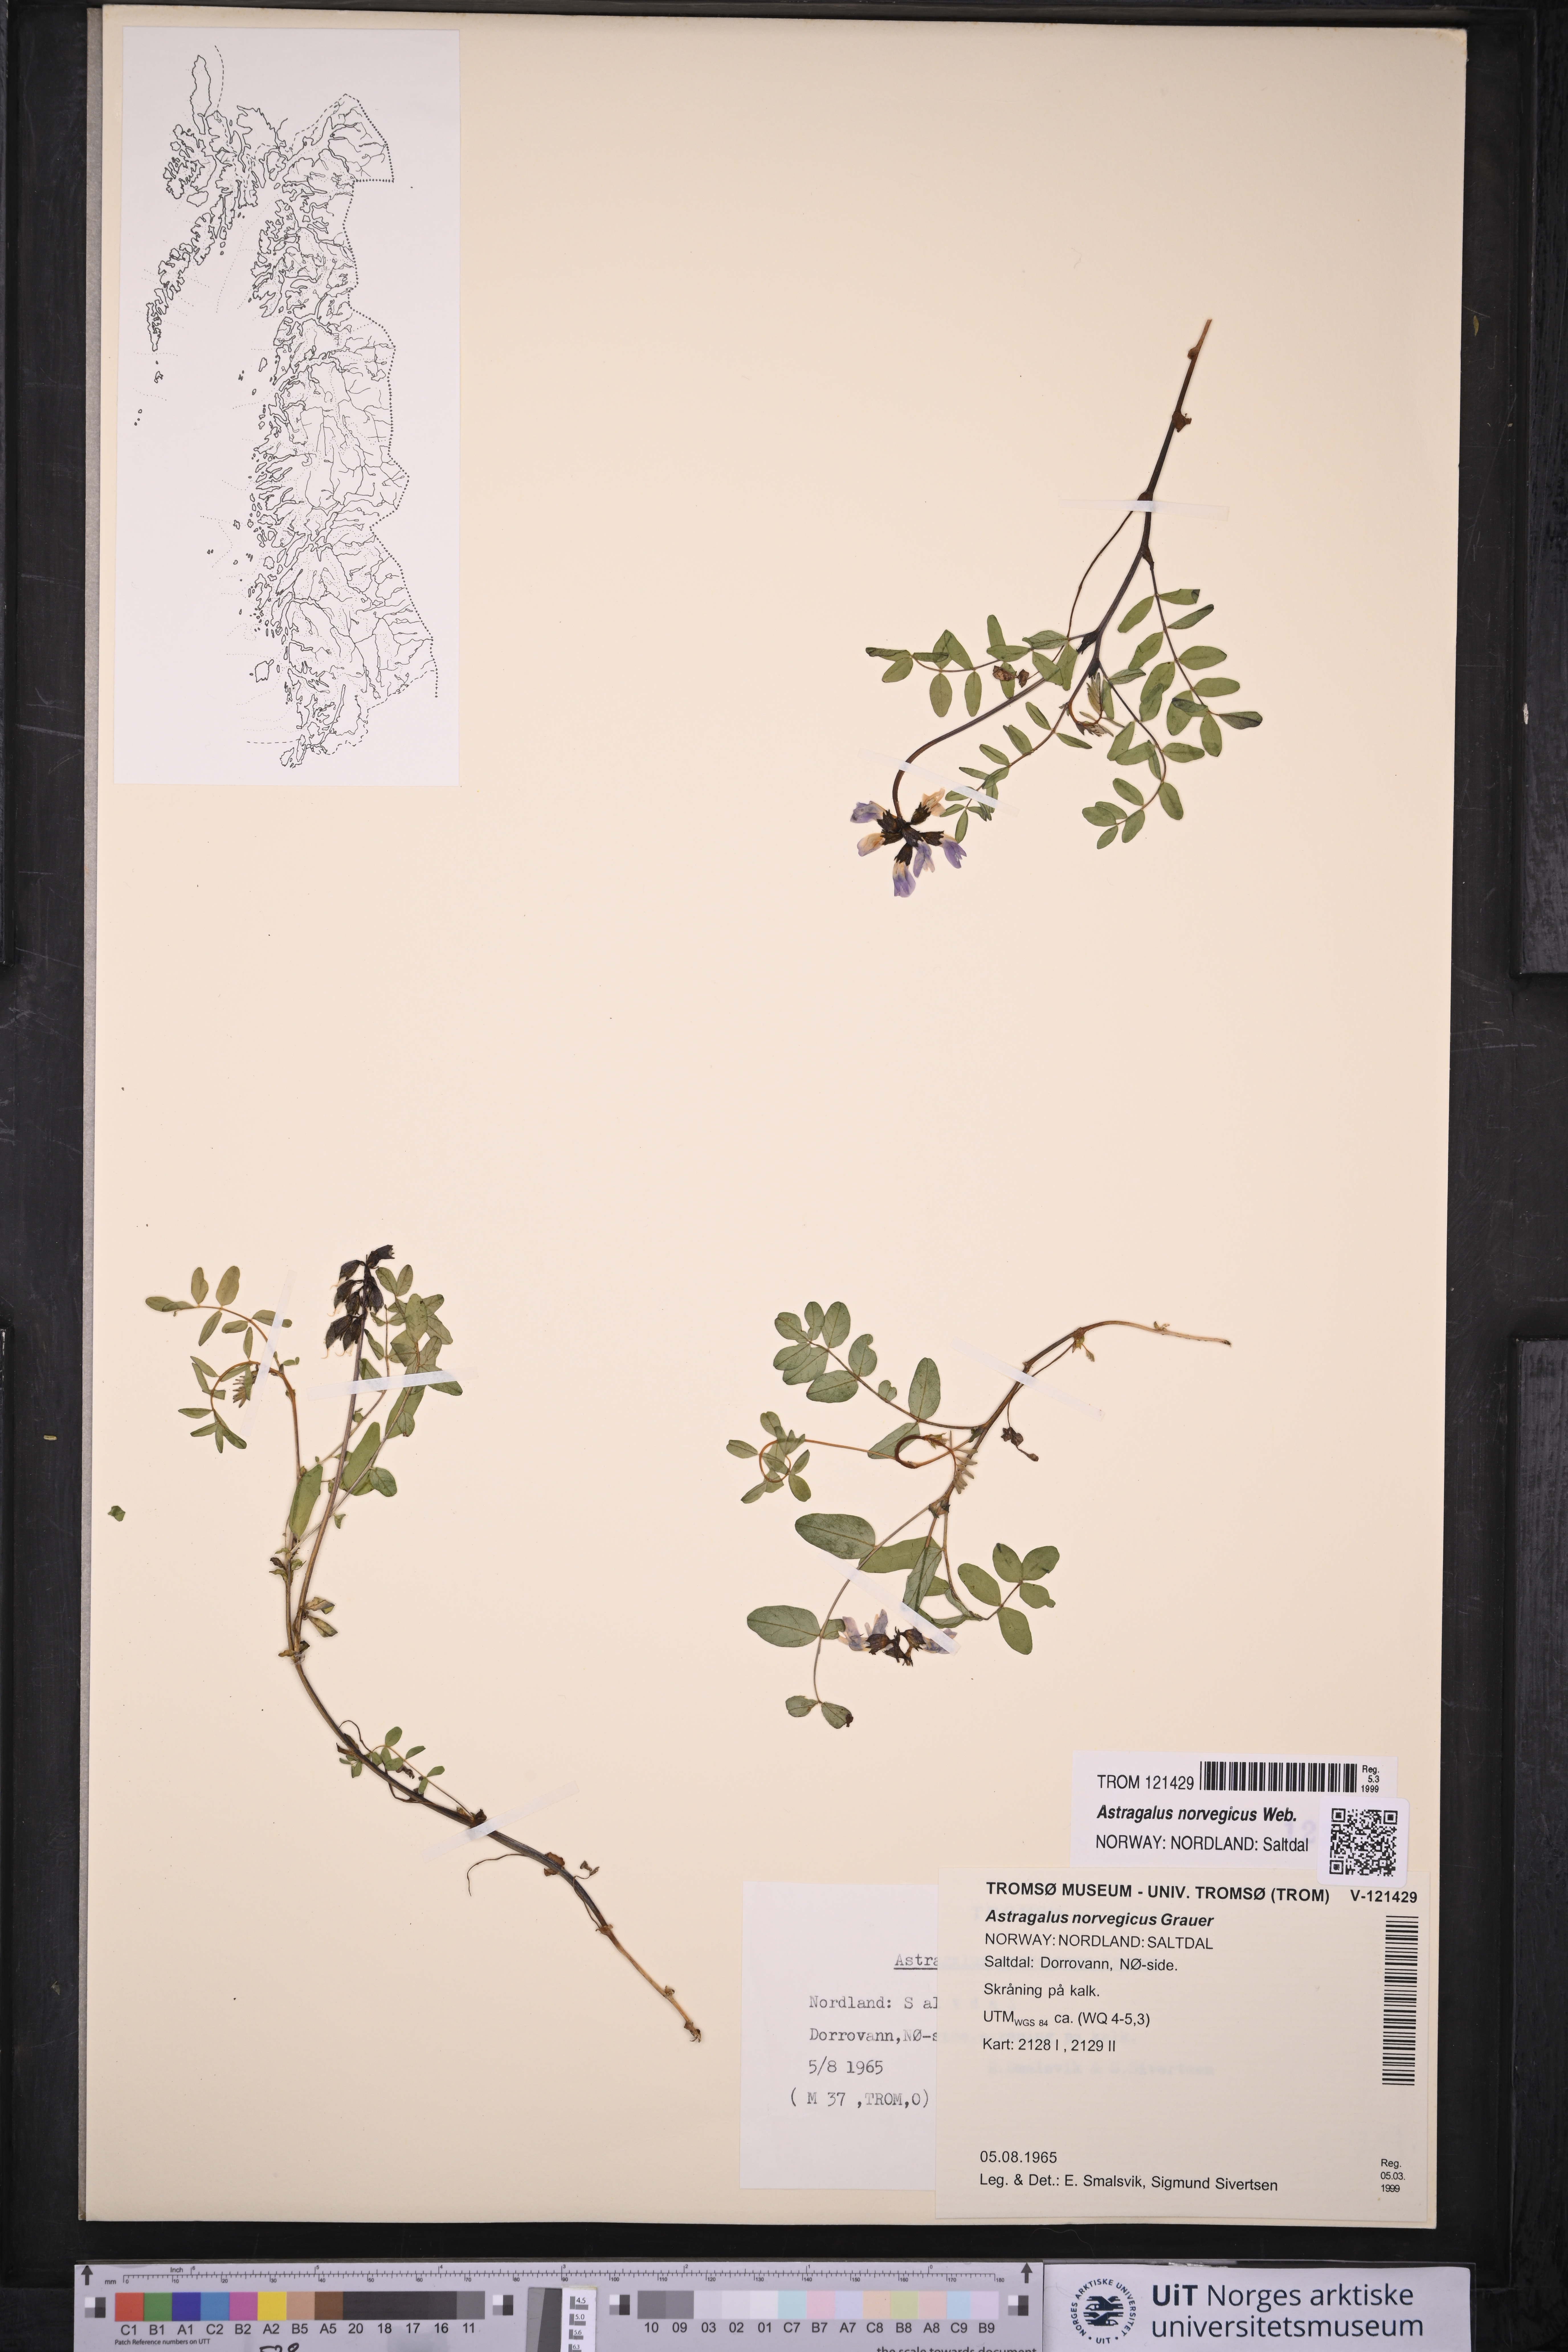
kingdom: Plantae
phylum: Tracheophyta
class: Magnoliopsida
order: Fabales
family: Fabaceae
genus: Astragalus
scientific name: Astragalus norvegicus
